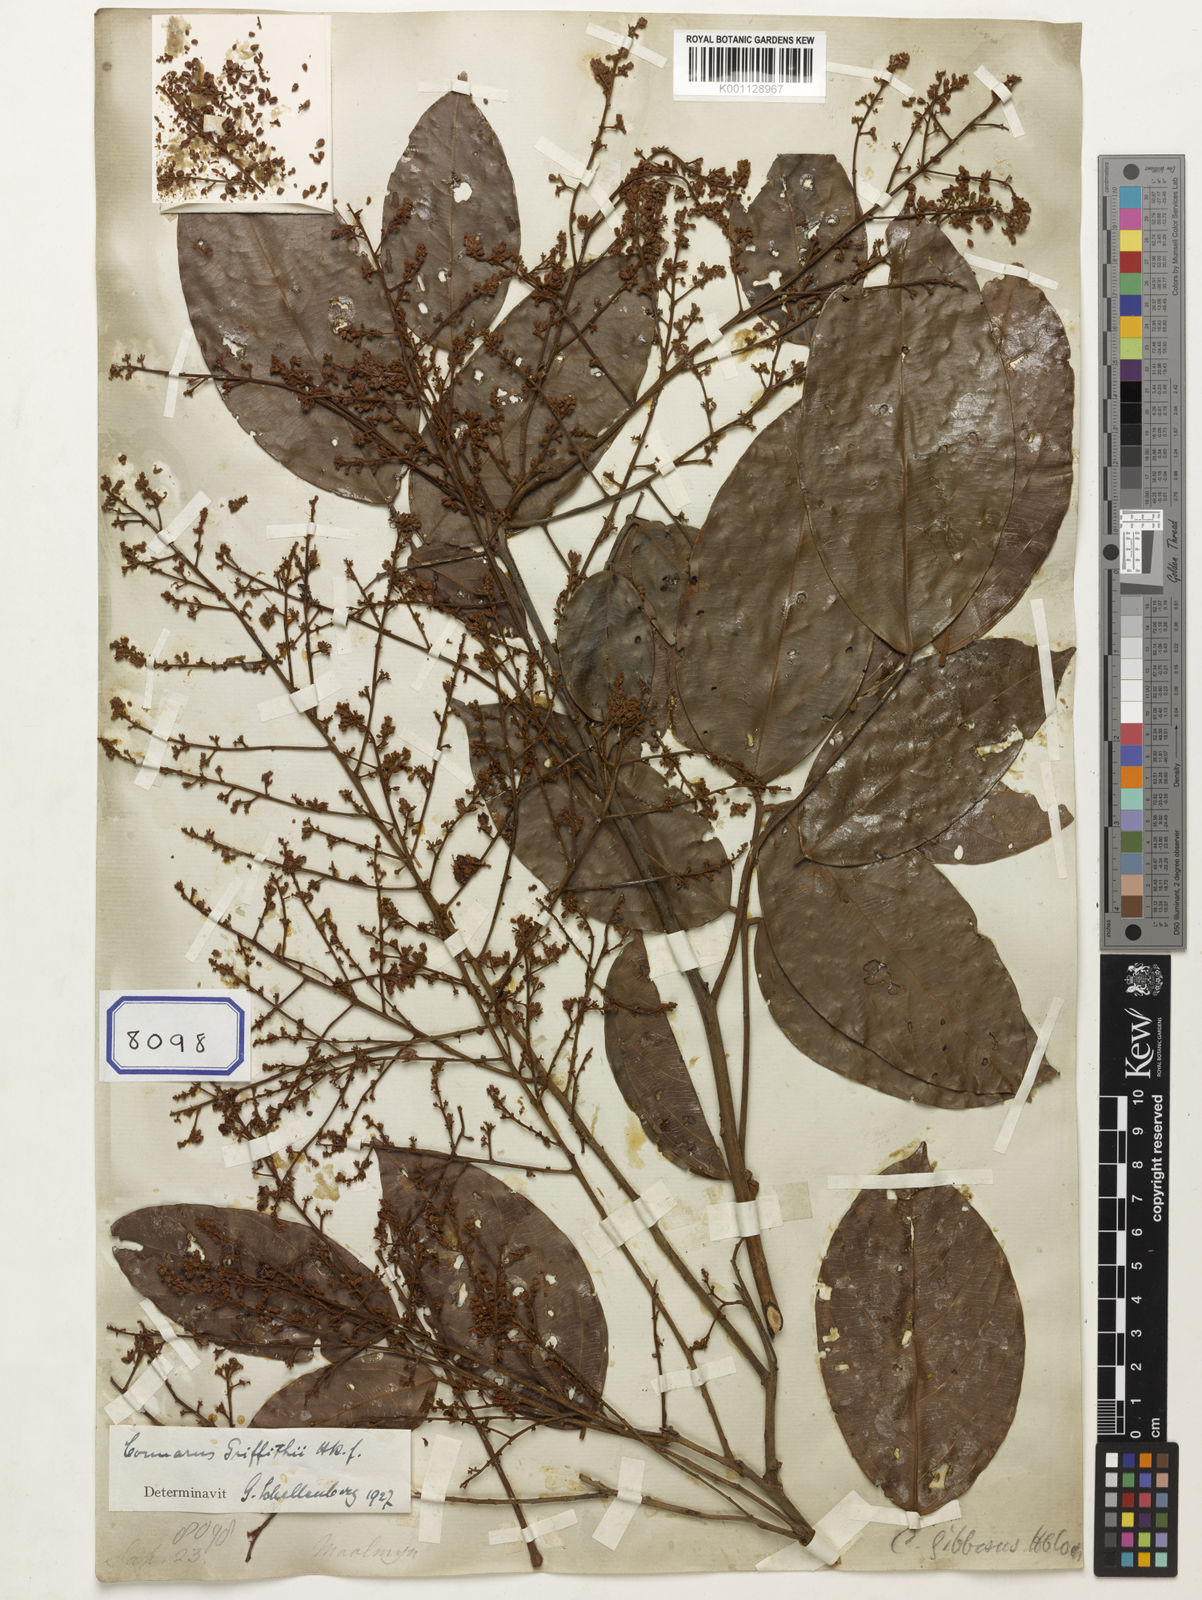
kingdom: Plantae
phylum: Tracheophyta
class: Magnoliopsida
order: Sapindales
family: Sapindaceae
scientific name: Sapindaceae
